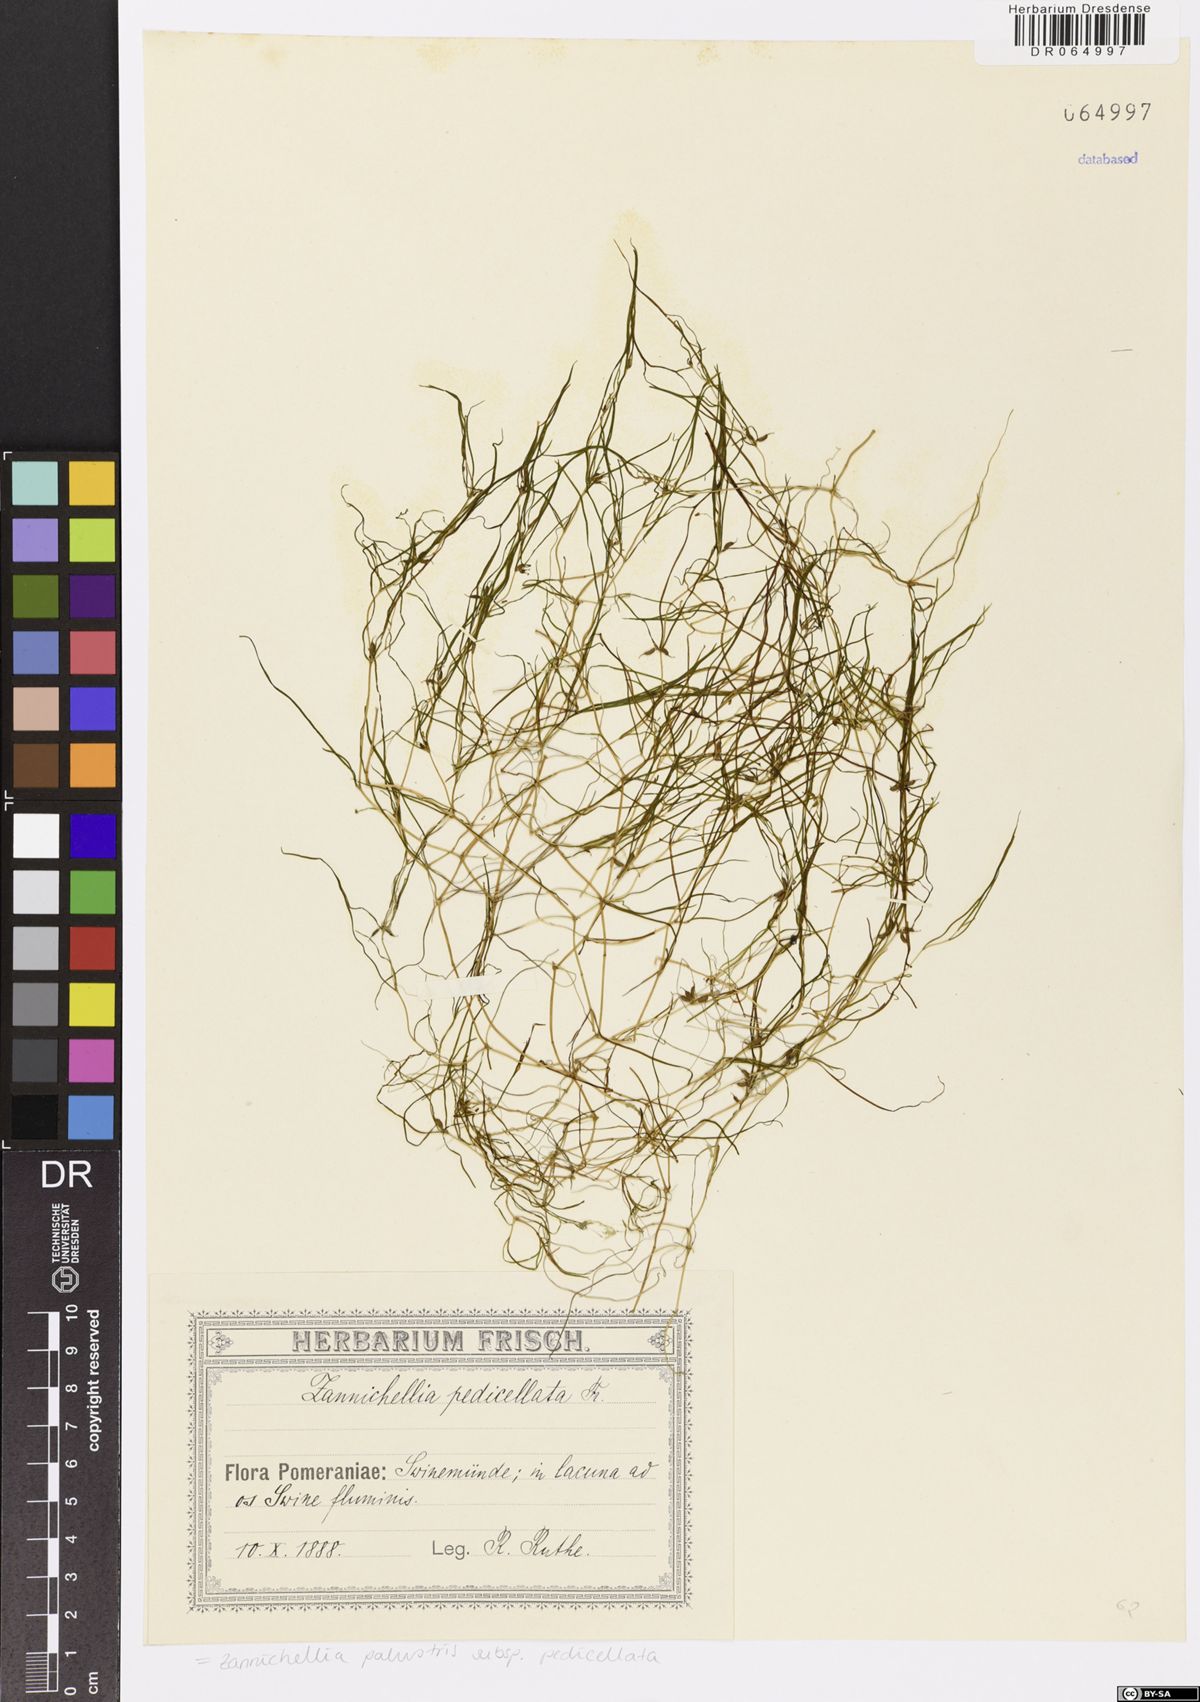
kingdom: Plantae
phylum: Tracheophyta
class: Liliopsida
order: Alismatales
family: Potamogetonaceae
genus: Zannichellia
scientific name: Zannichellia palustris
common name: Horned pondweed
